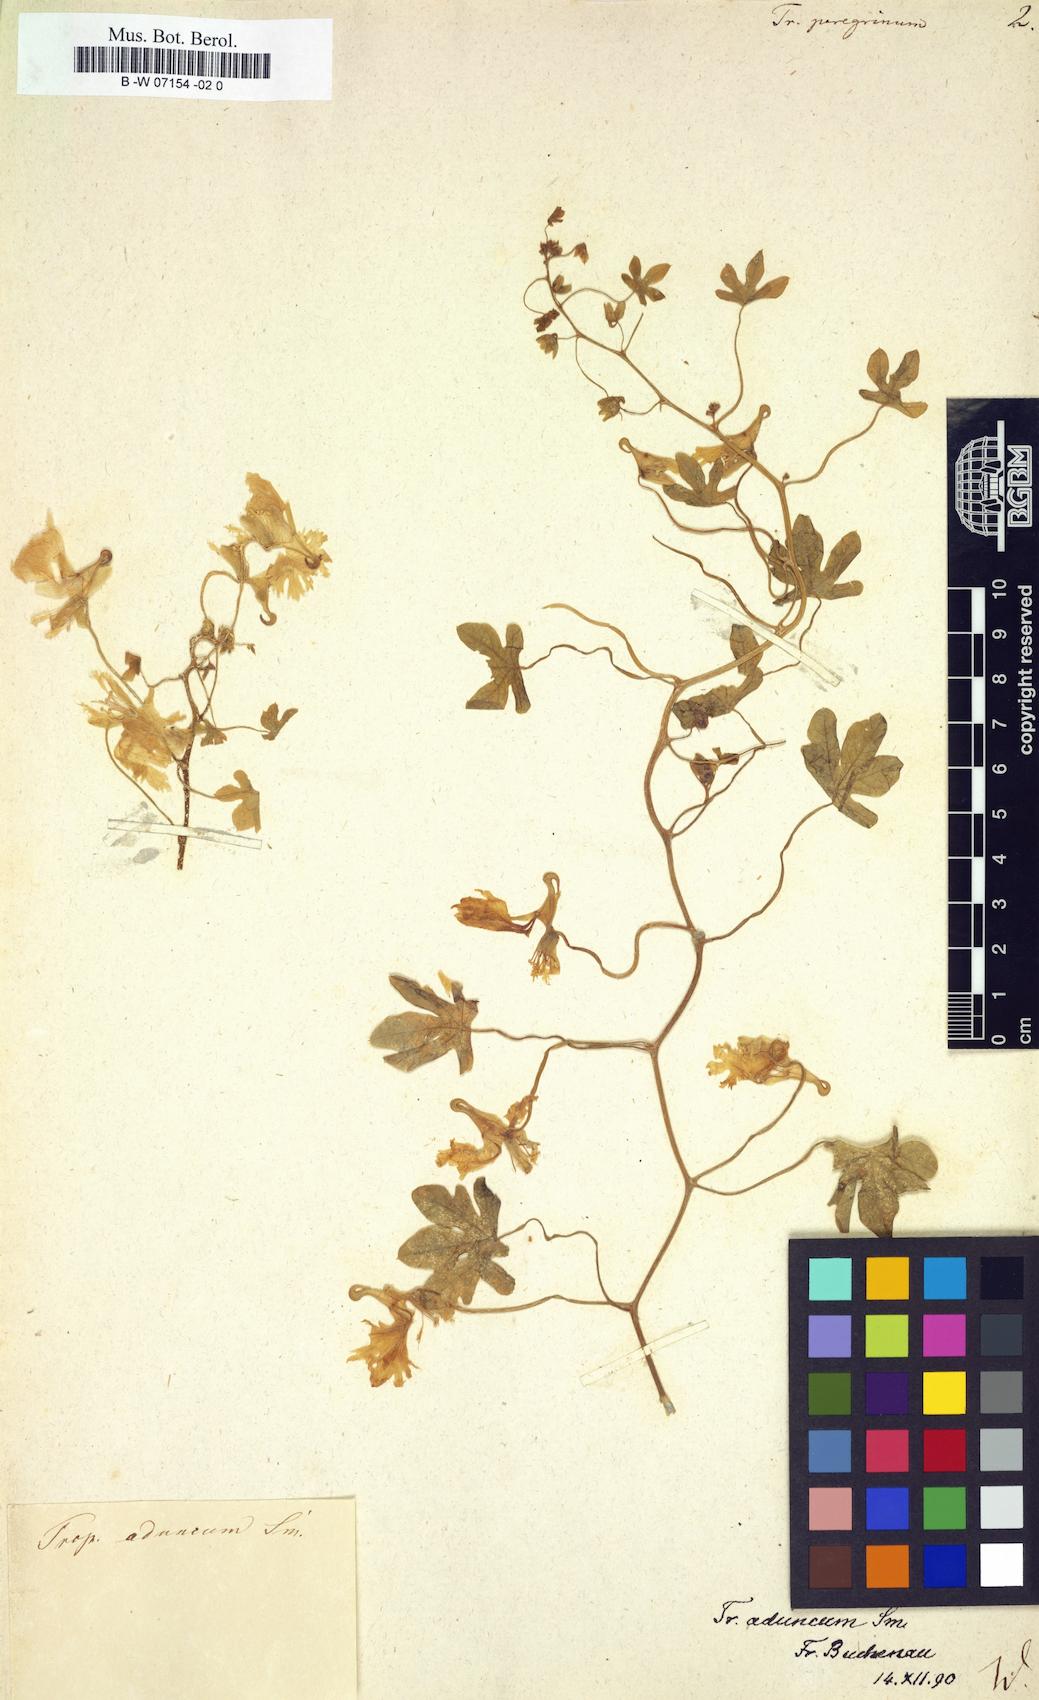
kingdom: Plantae
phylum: Tracheophyta
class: Magnoliopsida
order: Brassicales
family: Tropaeolaceae
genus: Tropaeolum
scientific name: Tropaeolum peregrinum
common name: Canary-creeper
